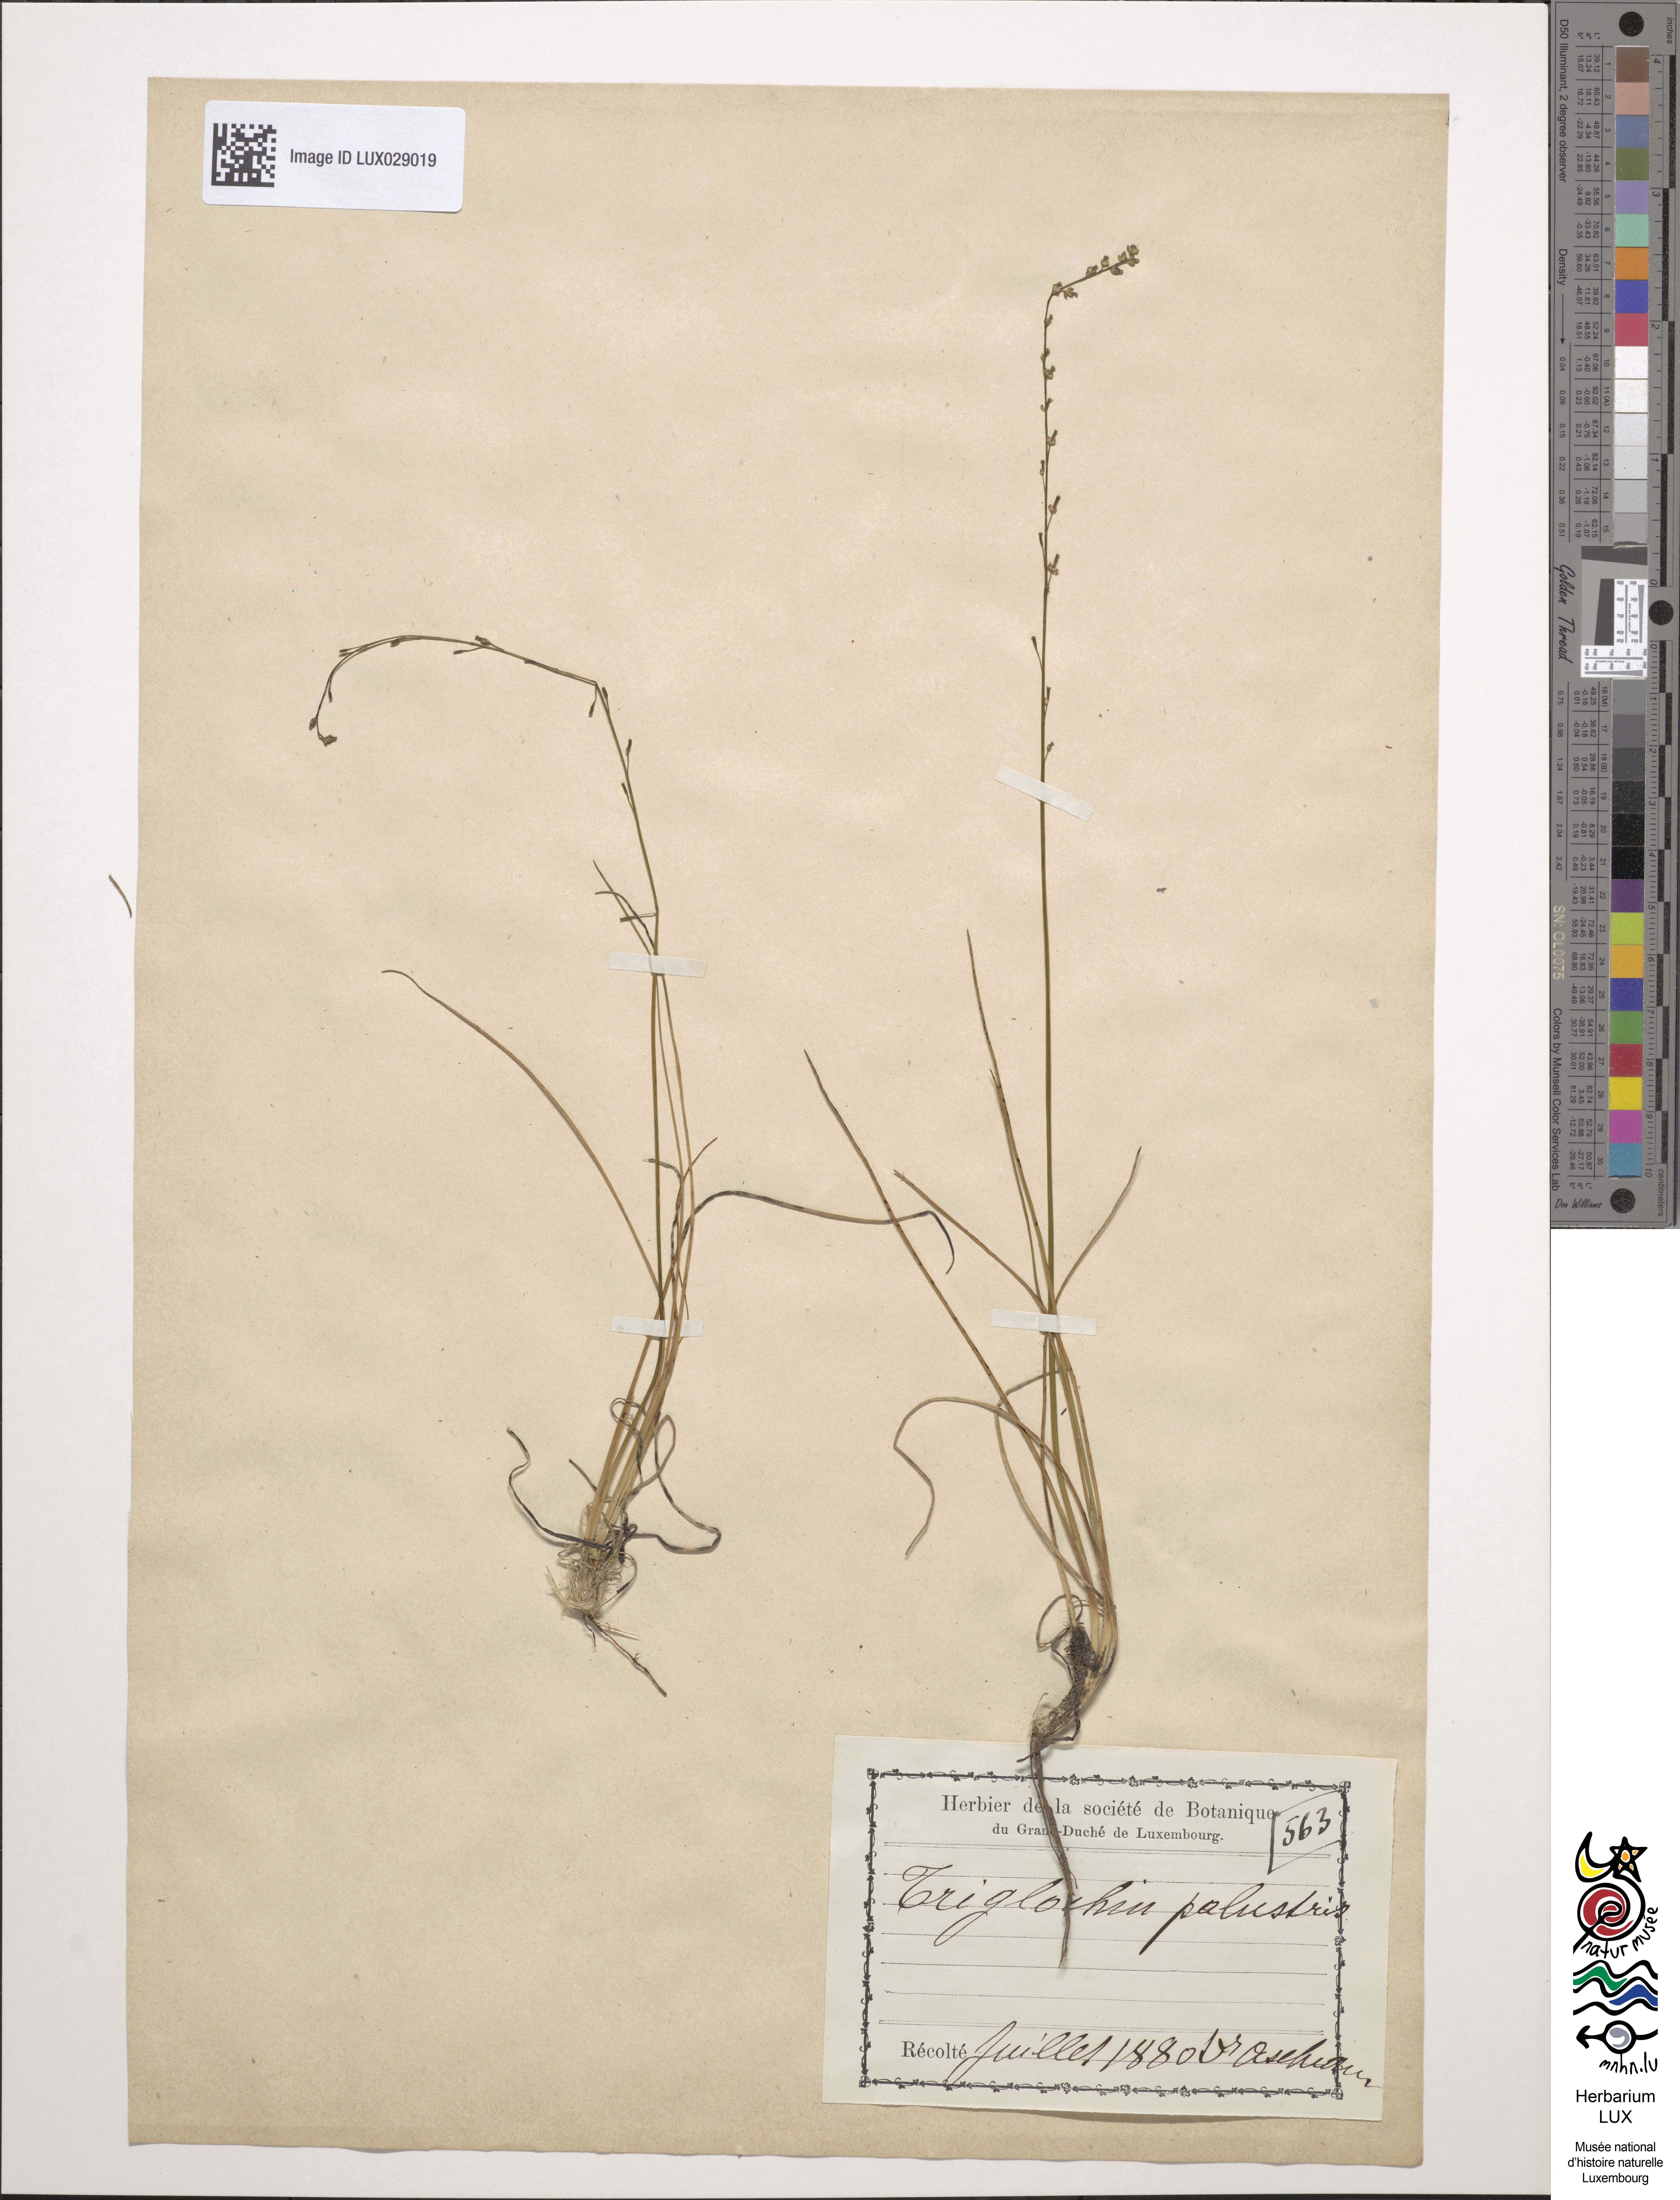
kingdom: Plantae
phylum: Tracheophyta
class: Liliopsida
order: Alismatales
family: Juncaginaceae
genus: Triglochin
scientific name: Triglochin palustris
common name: Marsh arrowgrass
